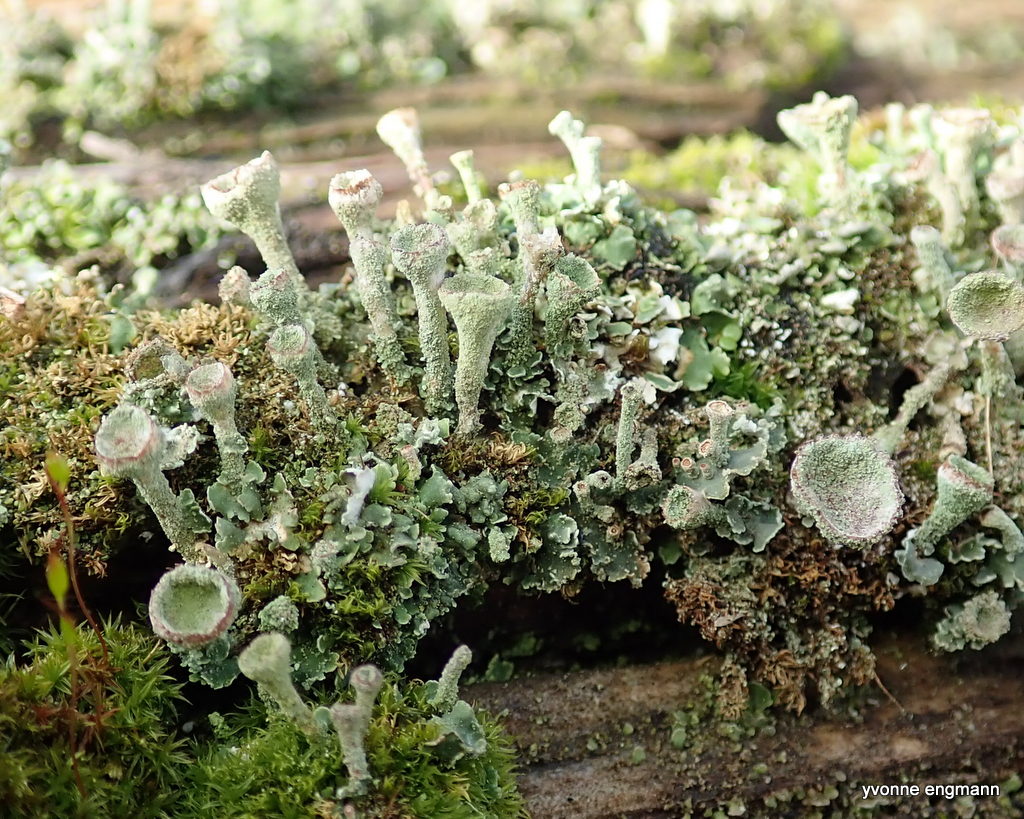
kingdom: Fungi
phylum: Ascomycota
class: Lecanoromycetes
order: Lecanorales
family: Cladoniaceae
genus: Cladonia
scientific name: Cladonia
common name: brungrøn bægerlav
